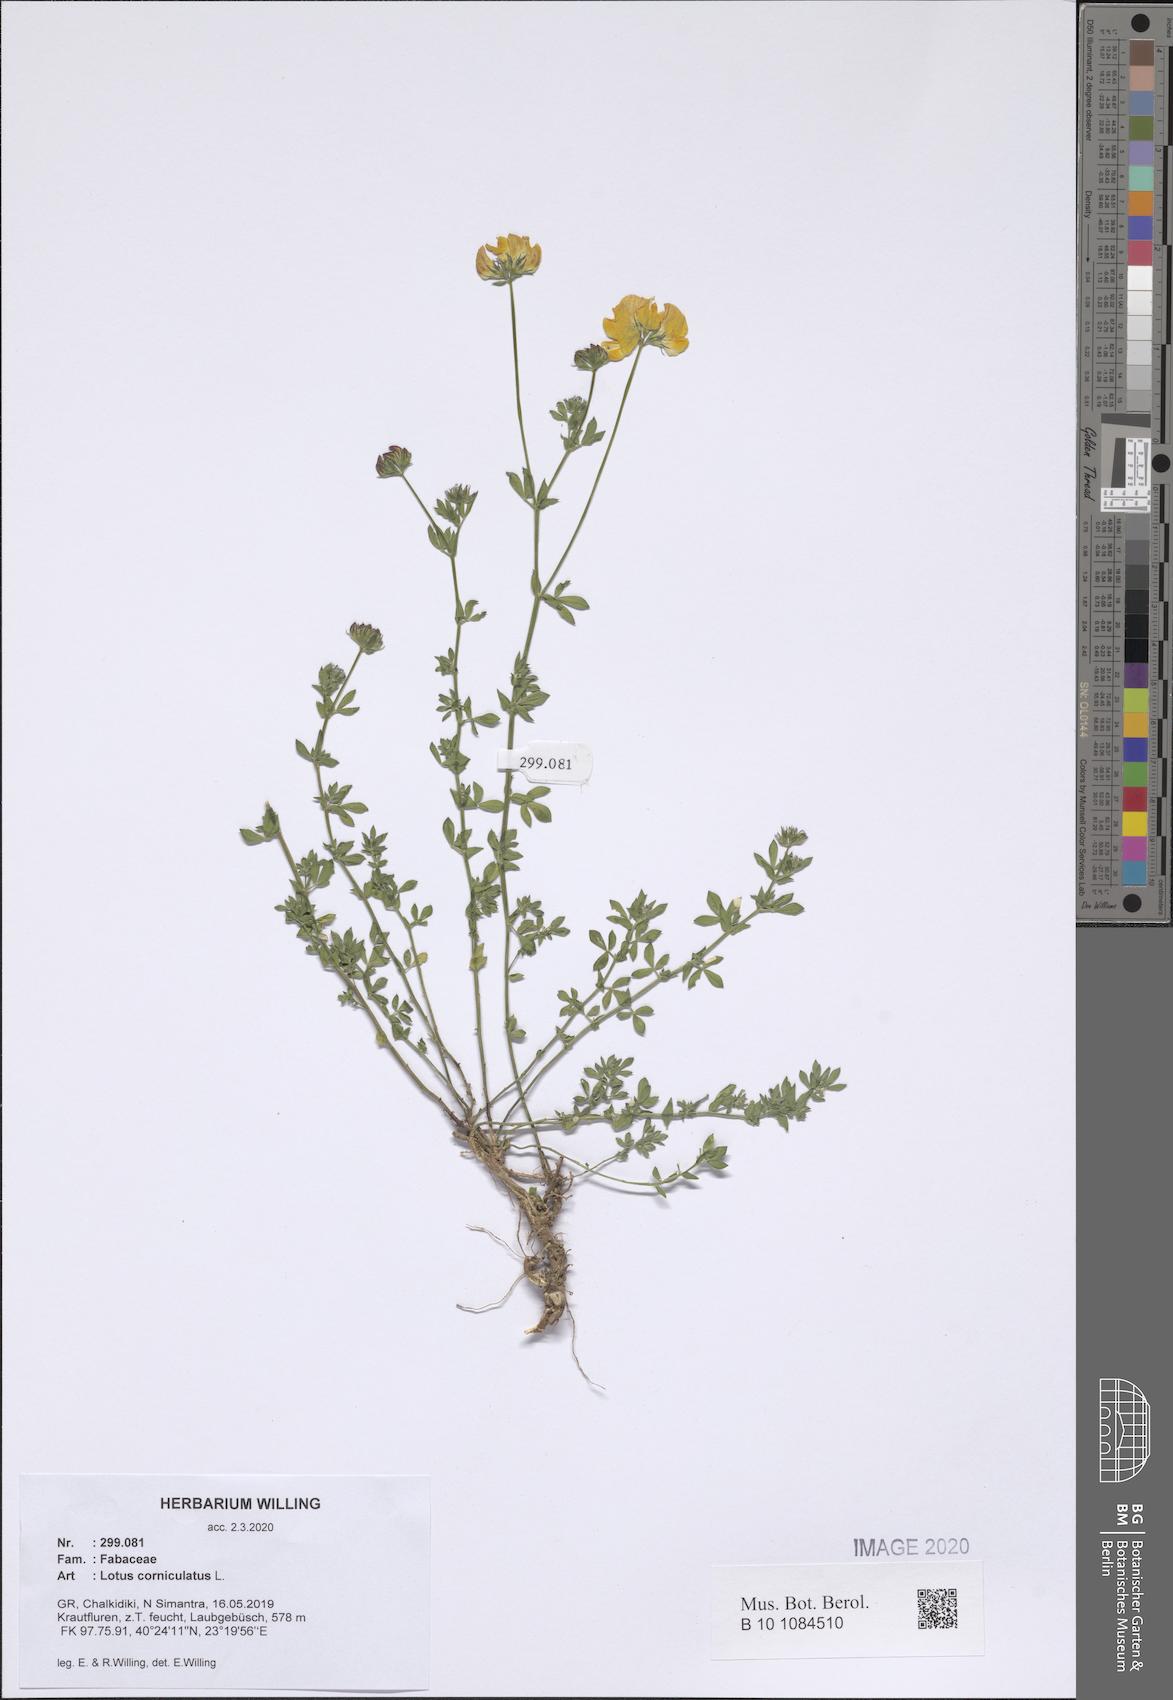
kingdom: Plantae
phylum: Tracheophyta
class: Magnoliopsida
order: Fabales
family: Fabaceae
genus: Lotus
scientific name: Lotus corniculatus
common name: Common bird's-foot-trefoil
